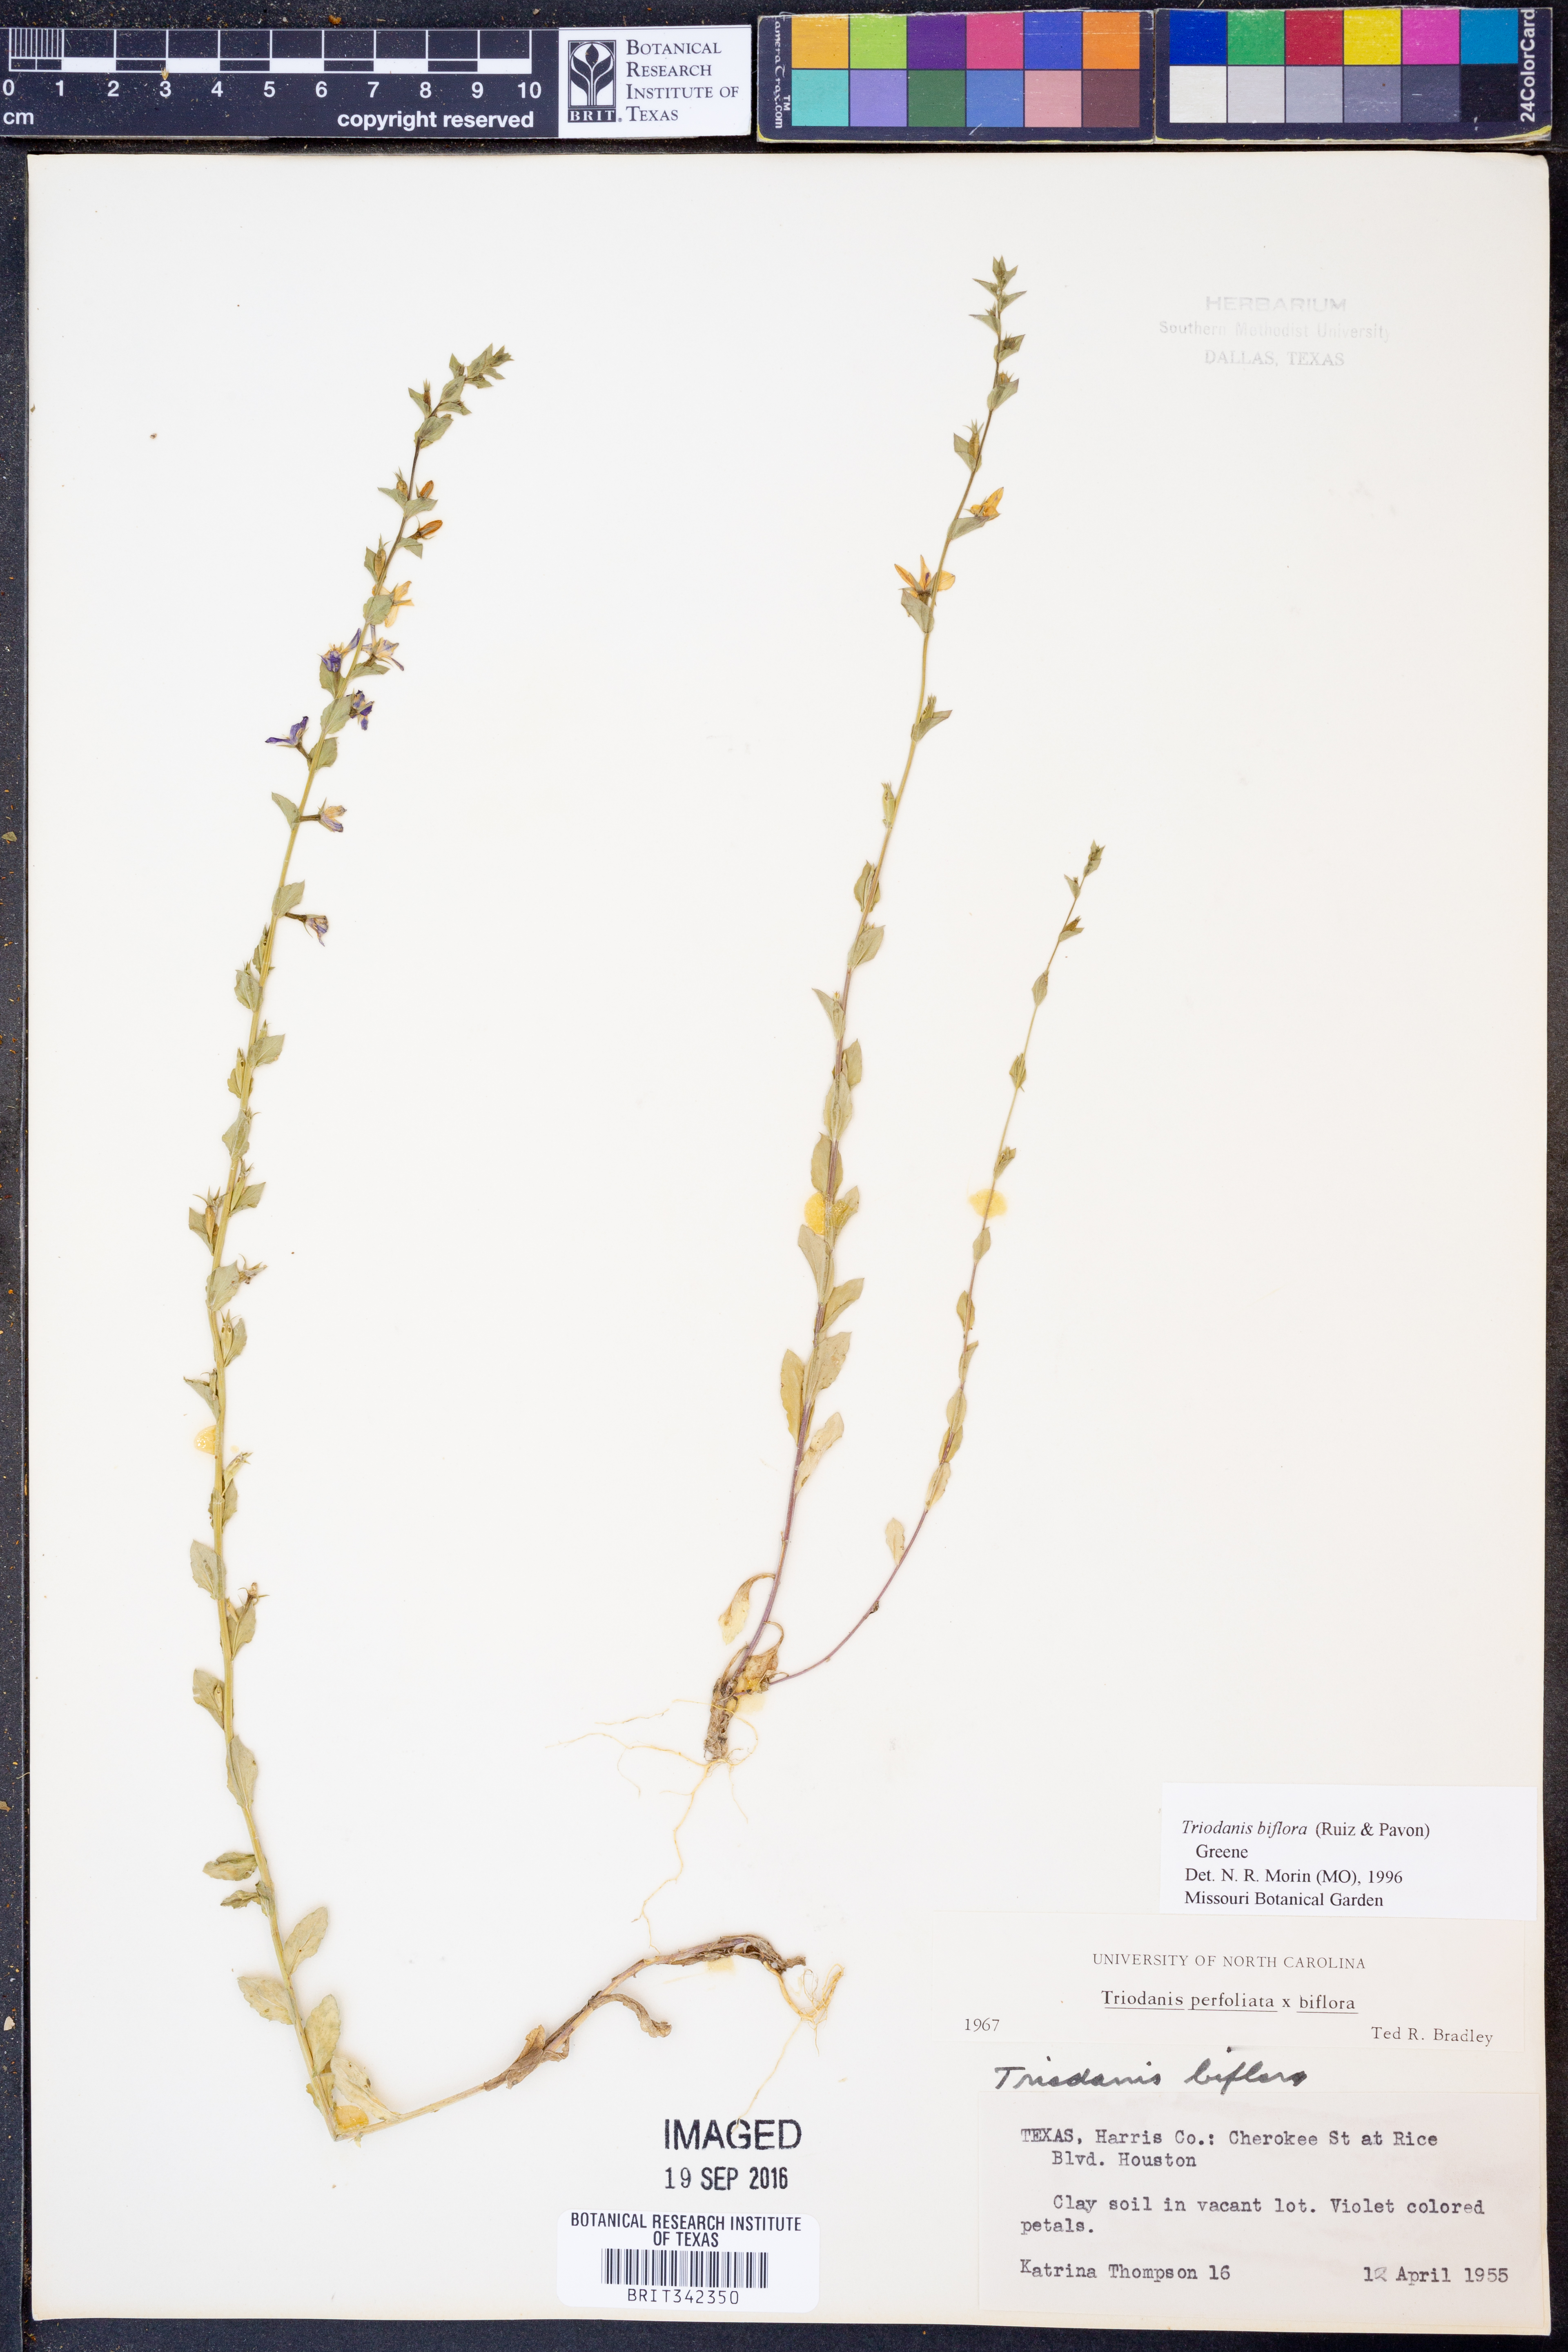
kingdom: Plantae
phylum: Tracheophyta
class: Magnoliopsida
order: Asterales
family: Campanulaceae
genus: Triodanis
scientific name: Triodanis perfoliata
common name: Clasping venus' looking-glass
